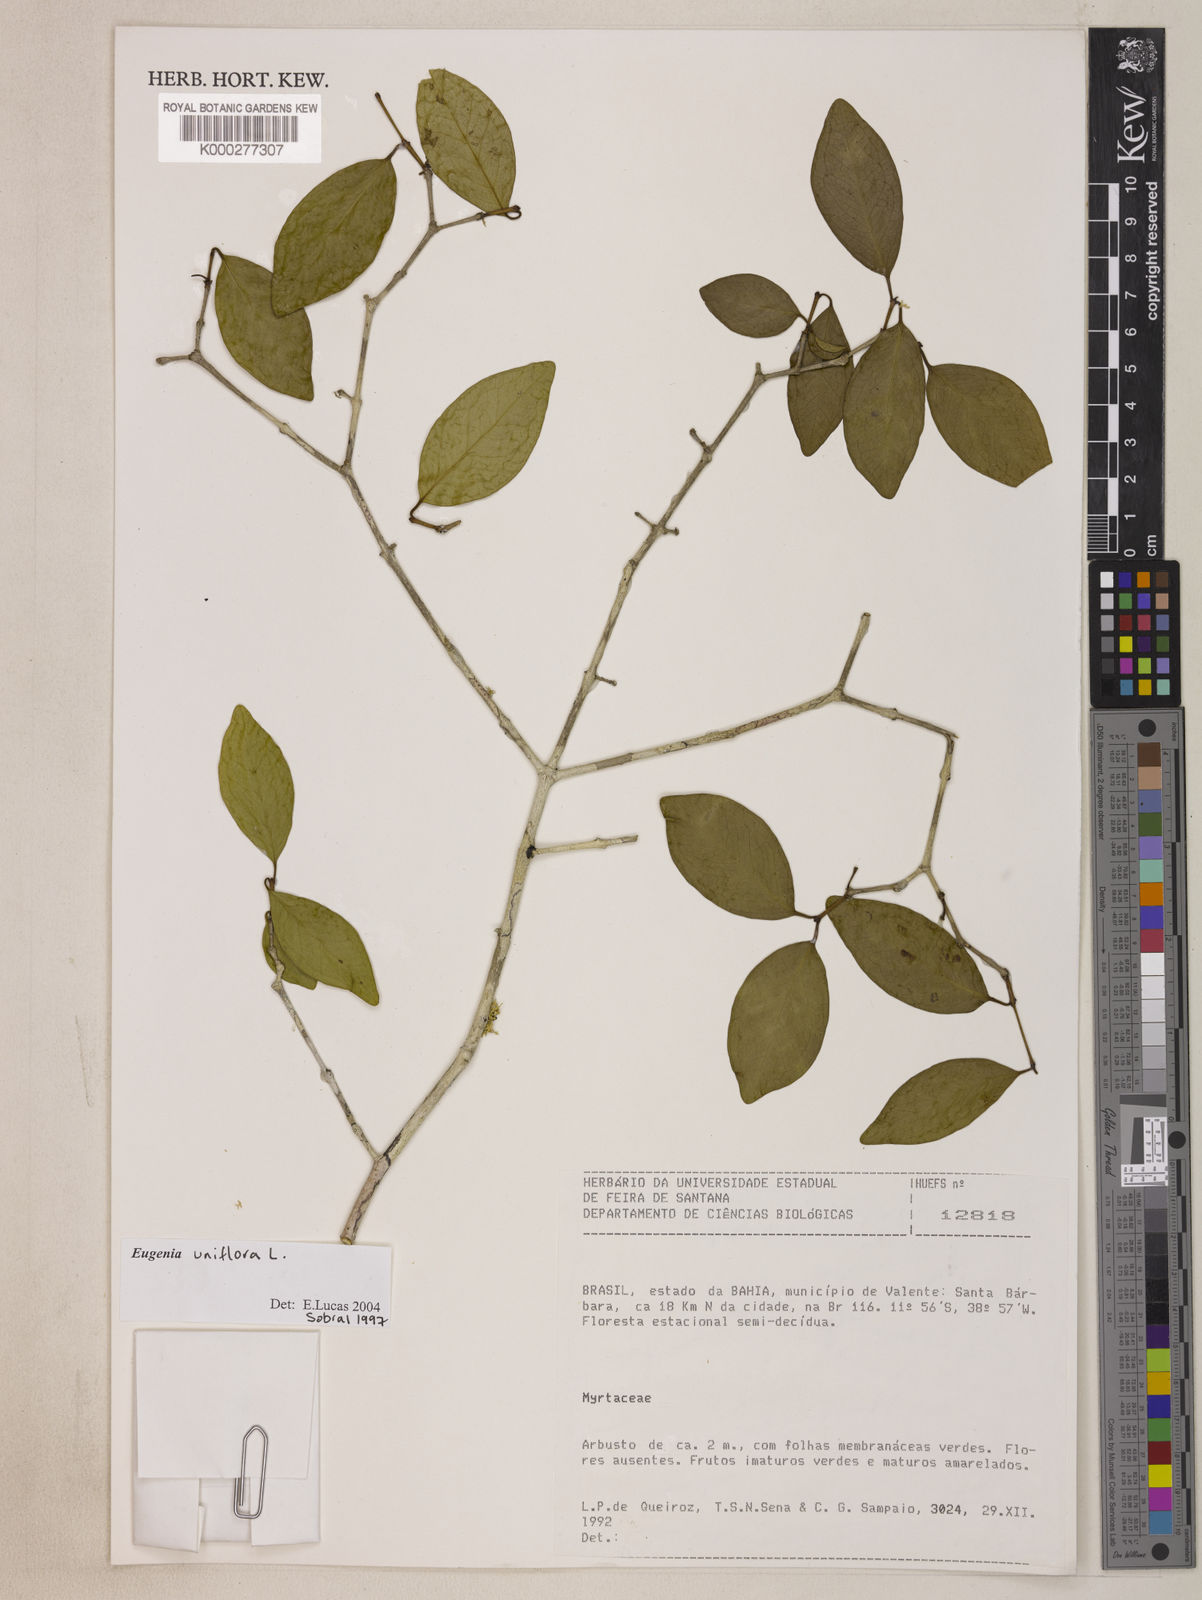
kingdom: Plantae
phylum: Tracheophyta
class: Magnoliopsida
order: Myrtales
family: Myrtaceae
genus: Eugenia
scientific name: Eugenia uniflora
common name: Surinam cherry
